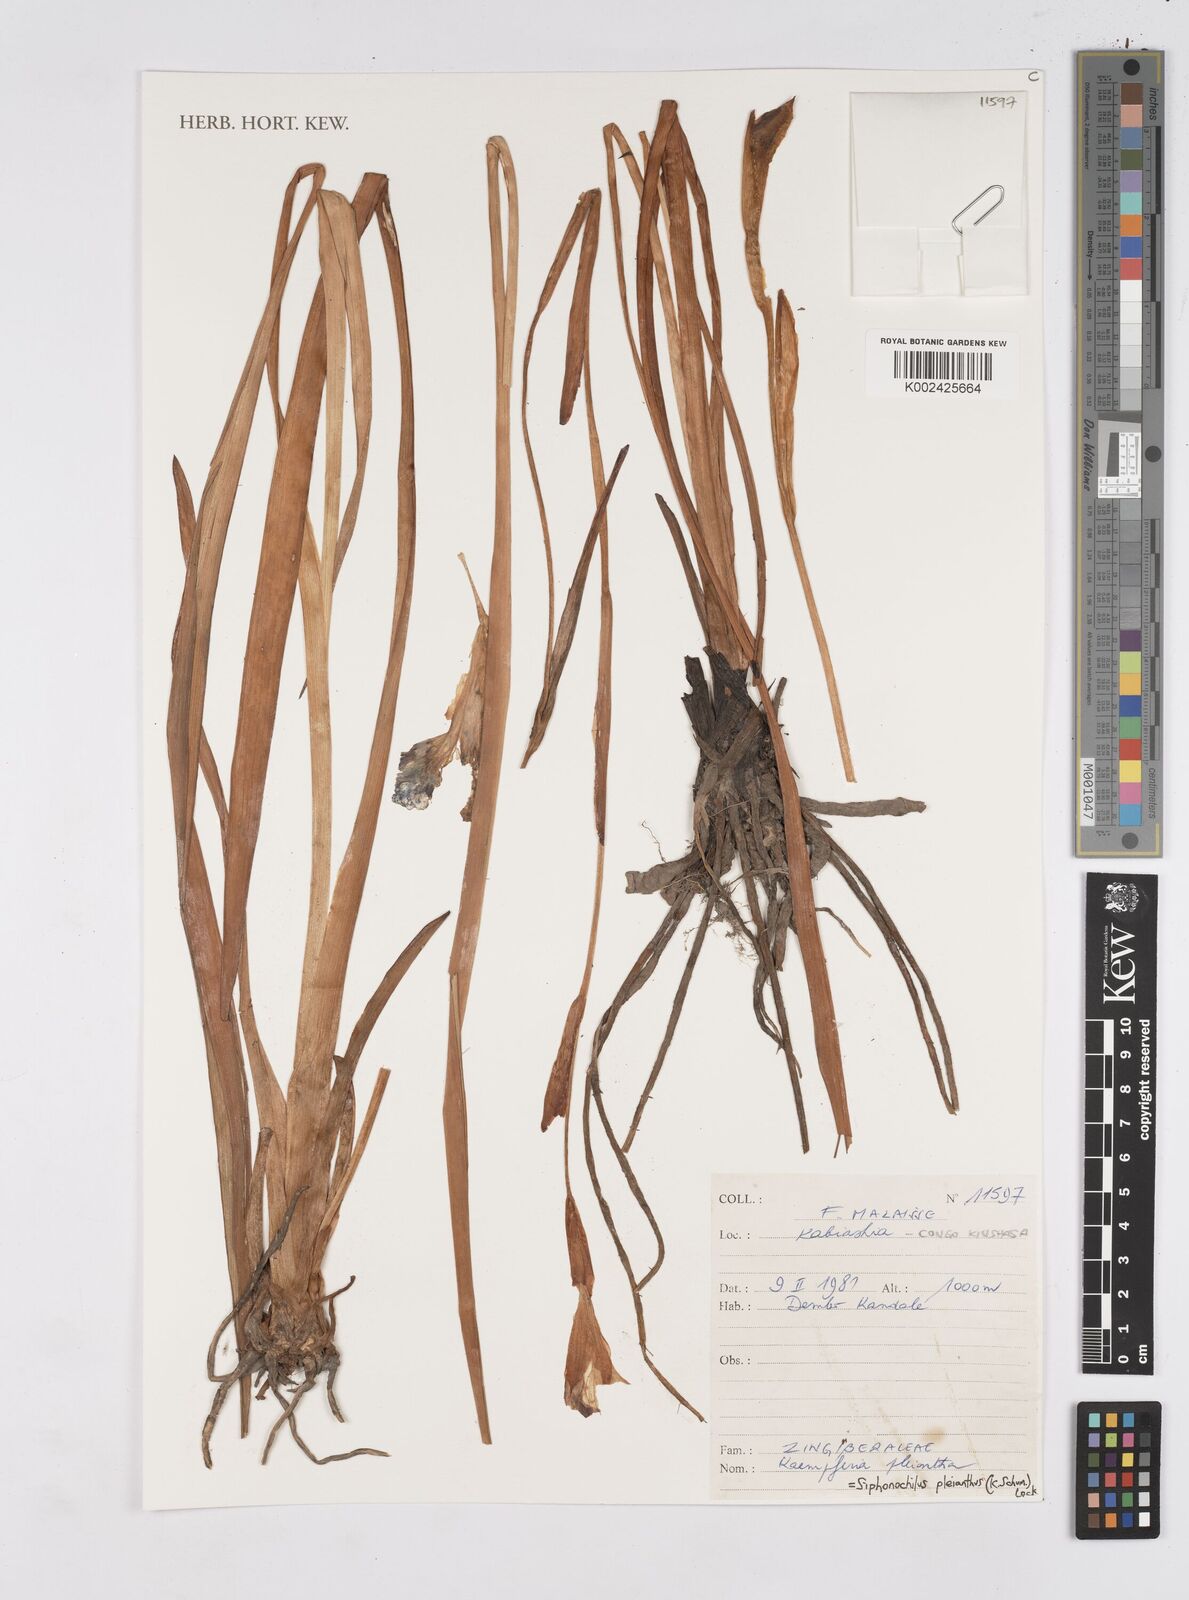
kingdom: Plantae
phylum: Tracheophyta
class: Liliopsida
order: Zingiberales
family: Zingiberaceae
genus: Siphonochilus
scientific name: Siphonochilus pleianthus
